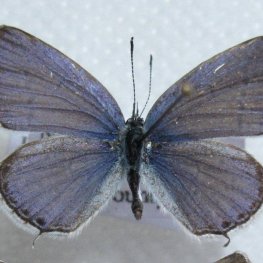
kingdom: Animalia
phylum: Arthropoda
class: Insecta
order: Lepidoptera
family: Lycaenidae
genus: Elkalyce
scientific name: Elkalyce amyntula
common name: Western Tailed-Blue
